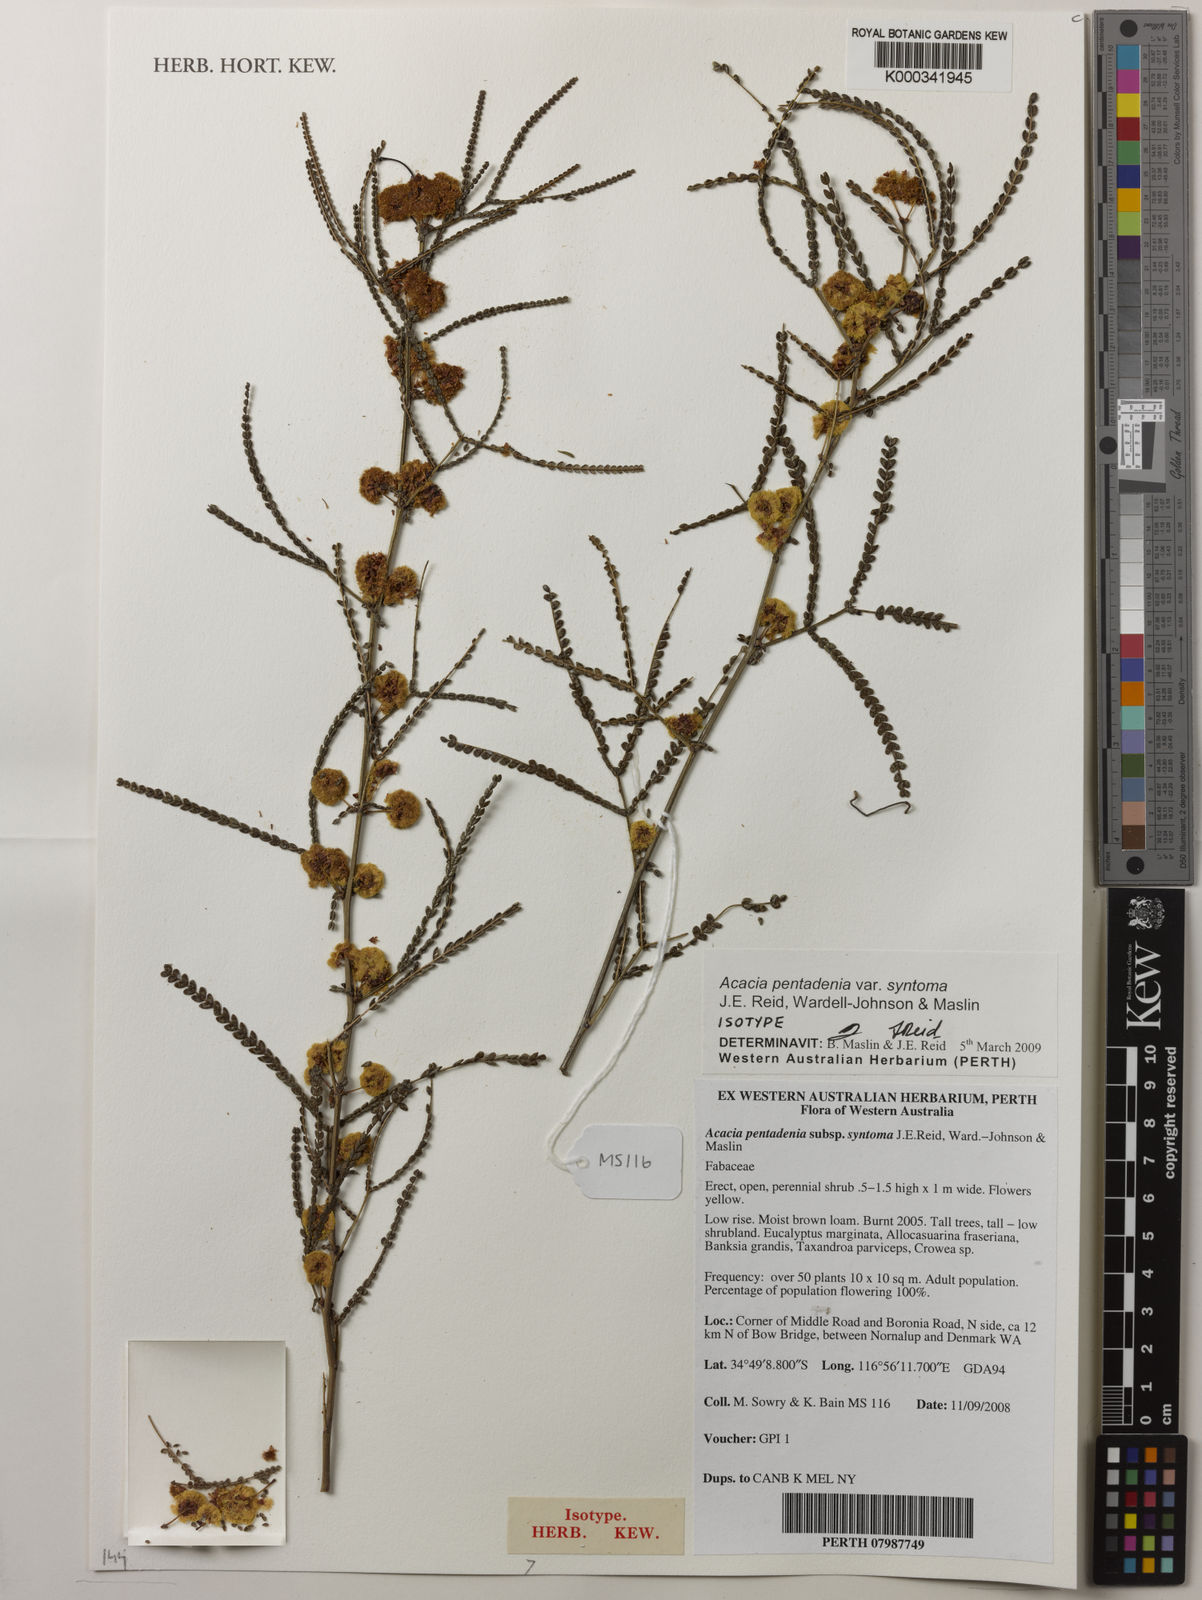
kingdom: Plantae
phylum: Tracheophyta
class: Magnoliopsida
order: Fabales
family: Fabaceae
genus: Acacia
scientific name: Acacia pentadenia
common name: Karri wattle
